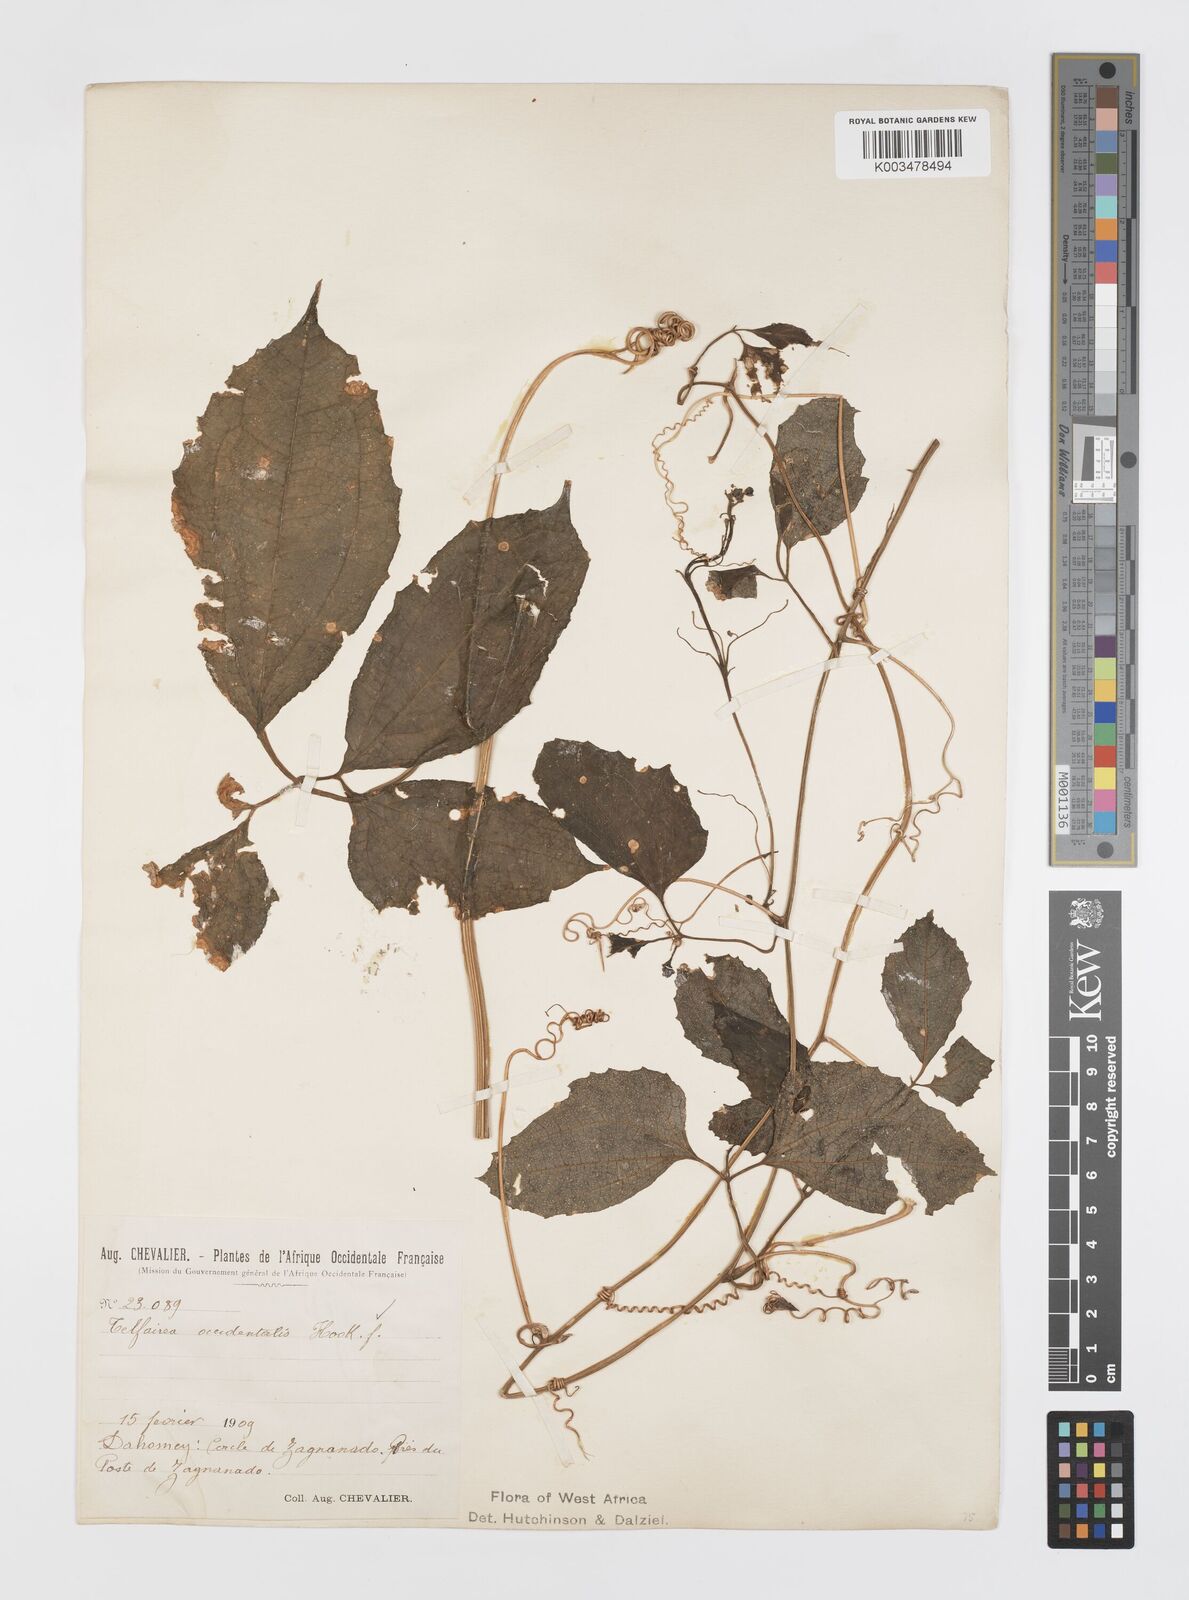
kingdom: Plantae
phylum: Tracheophyta
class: Magnoliopsida
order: Cucurbitales
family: Cucurbitaceae
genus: Telfairia
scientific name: Telfairia occidentalis
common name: Oysternut
